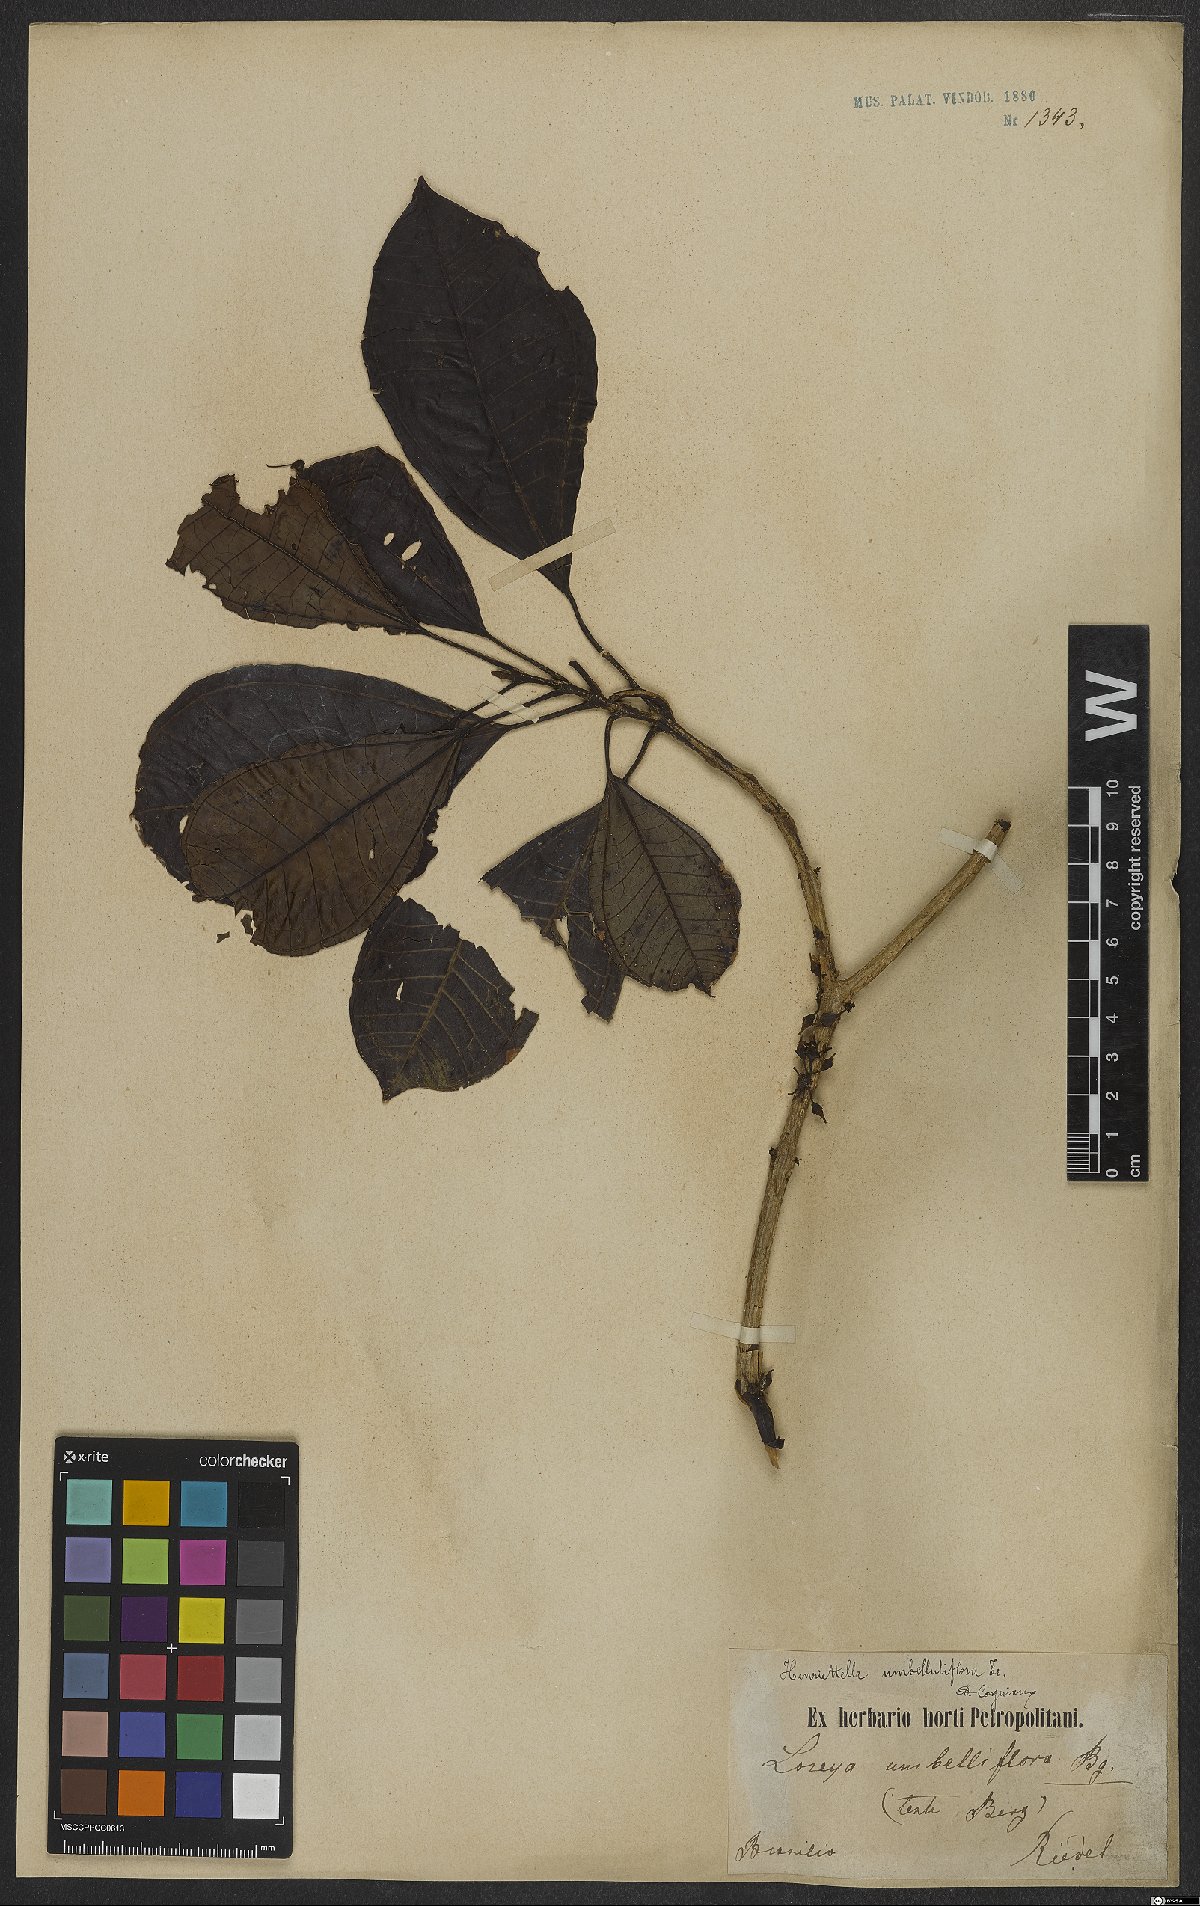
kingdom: Plantae
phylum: Tracheophyta
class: Magnoliopsida
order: Myrtales
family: Melastomataceae
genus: Henriettea
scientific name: Henriettea glabra
